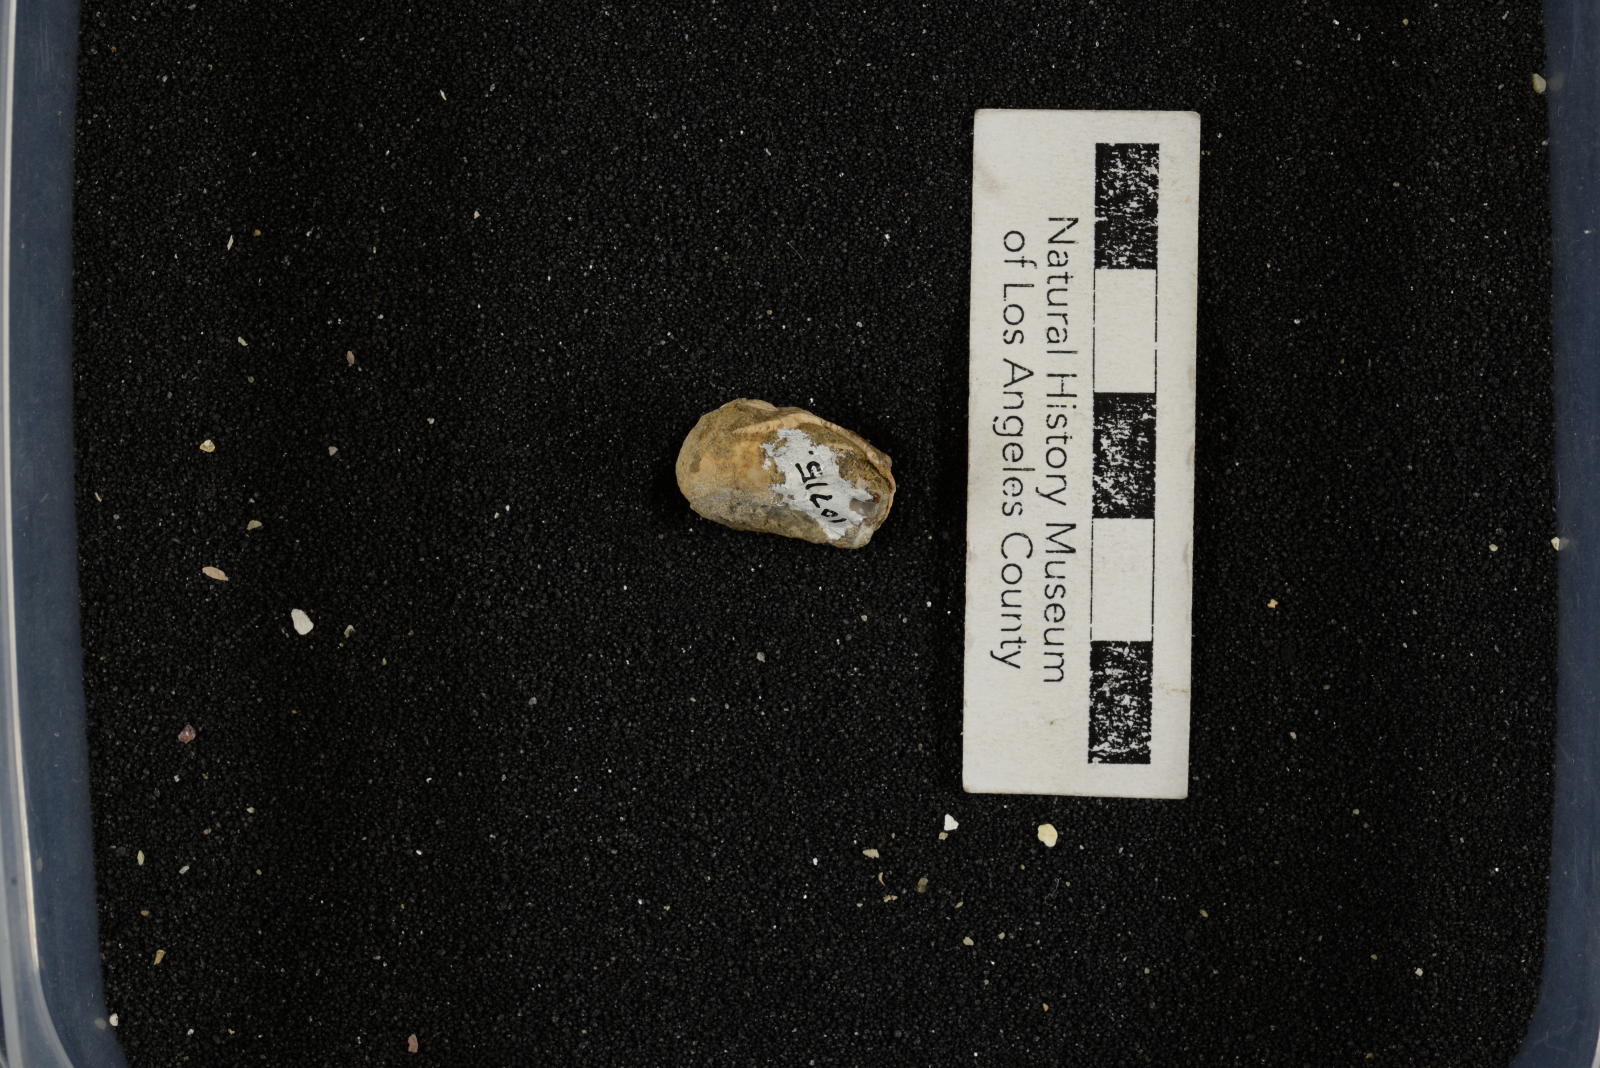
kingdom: Animalia
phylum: Mollusca
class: Gastropoda
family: Gyrodidae
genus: Gyrodes
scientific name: Gyrodes pacificus
